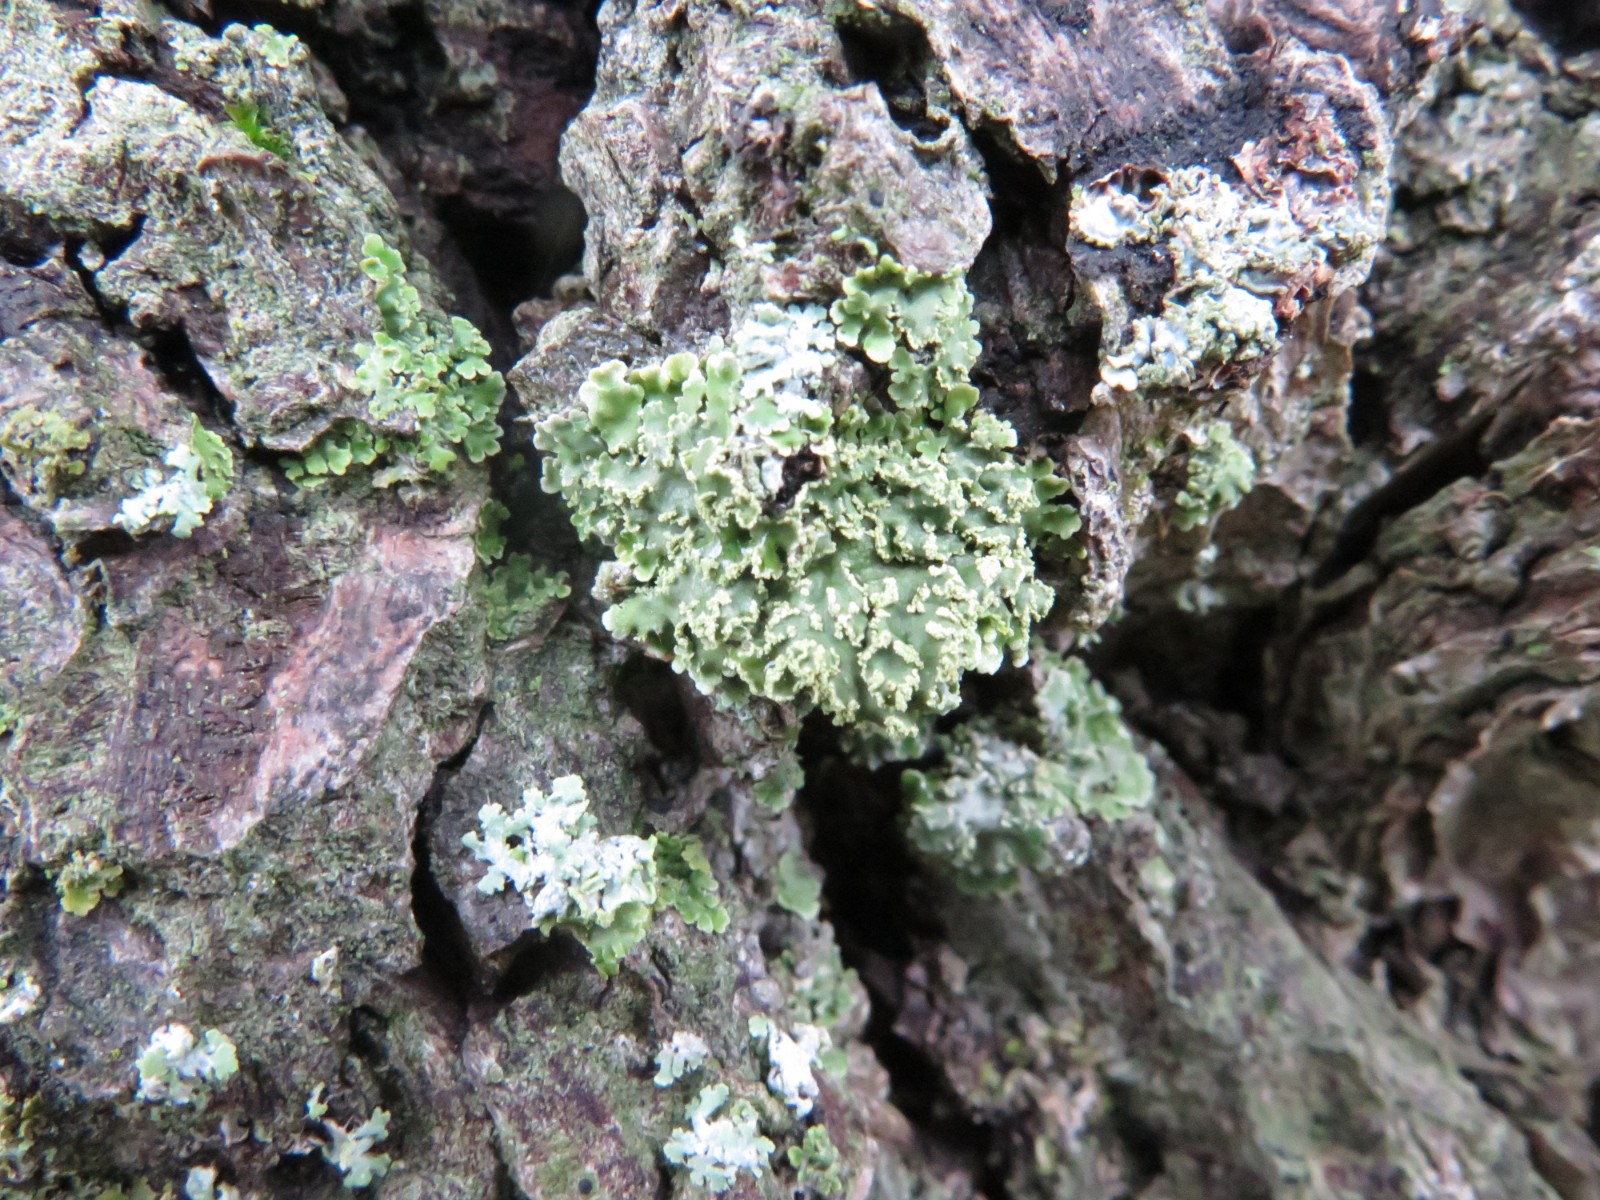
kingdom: Fungi
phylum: Ascomycota
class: Lecanoromycetes
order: Caliciales
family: Physciaceae
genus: Physconia
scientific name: Physconia perisidiosa
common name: liden dugrosetlav
